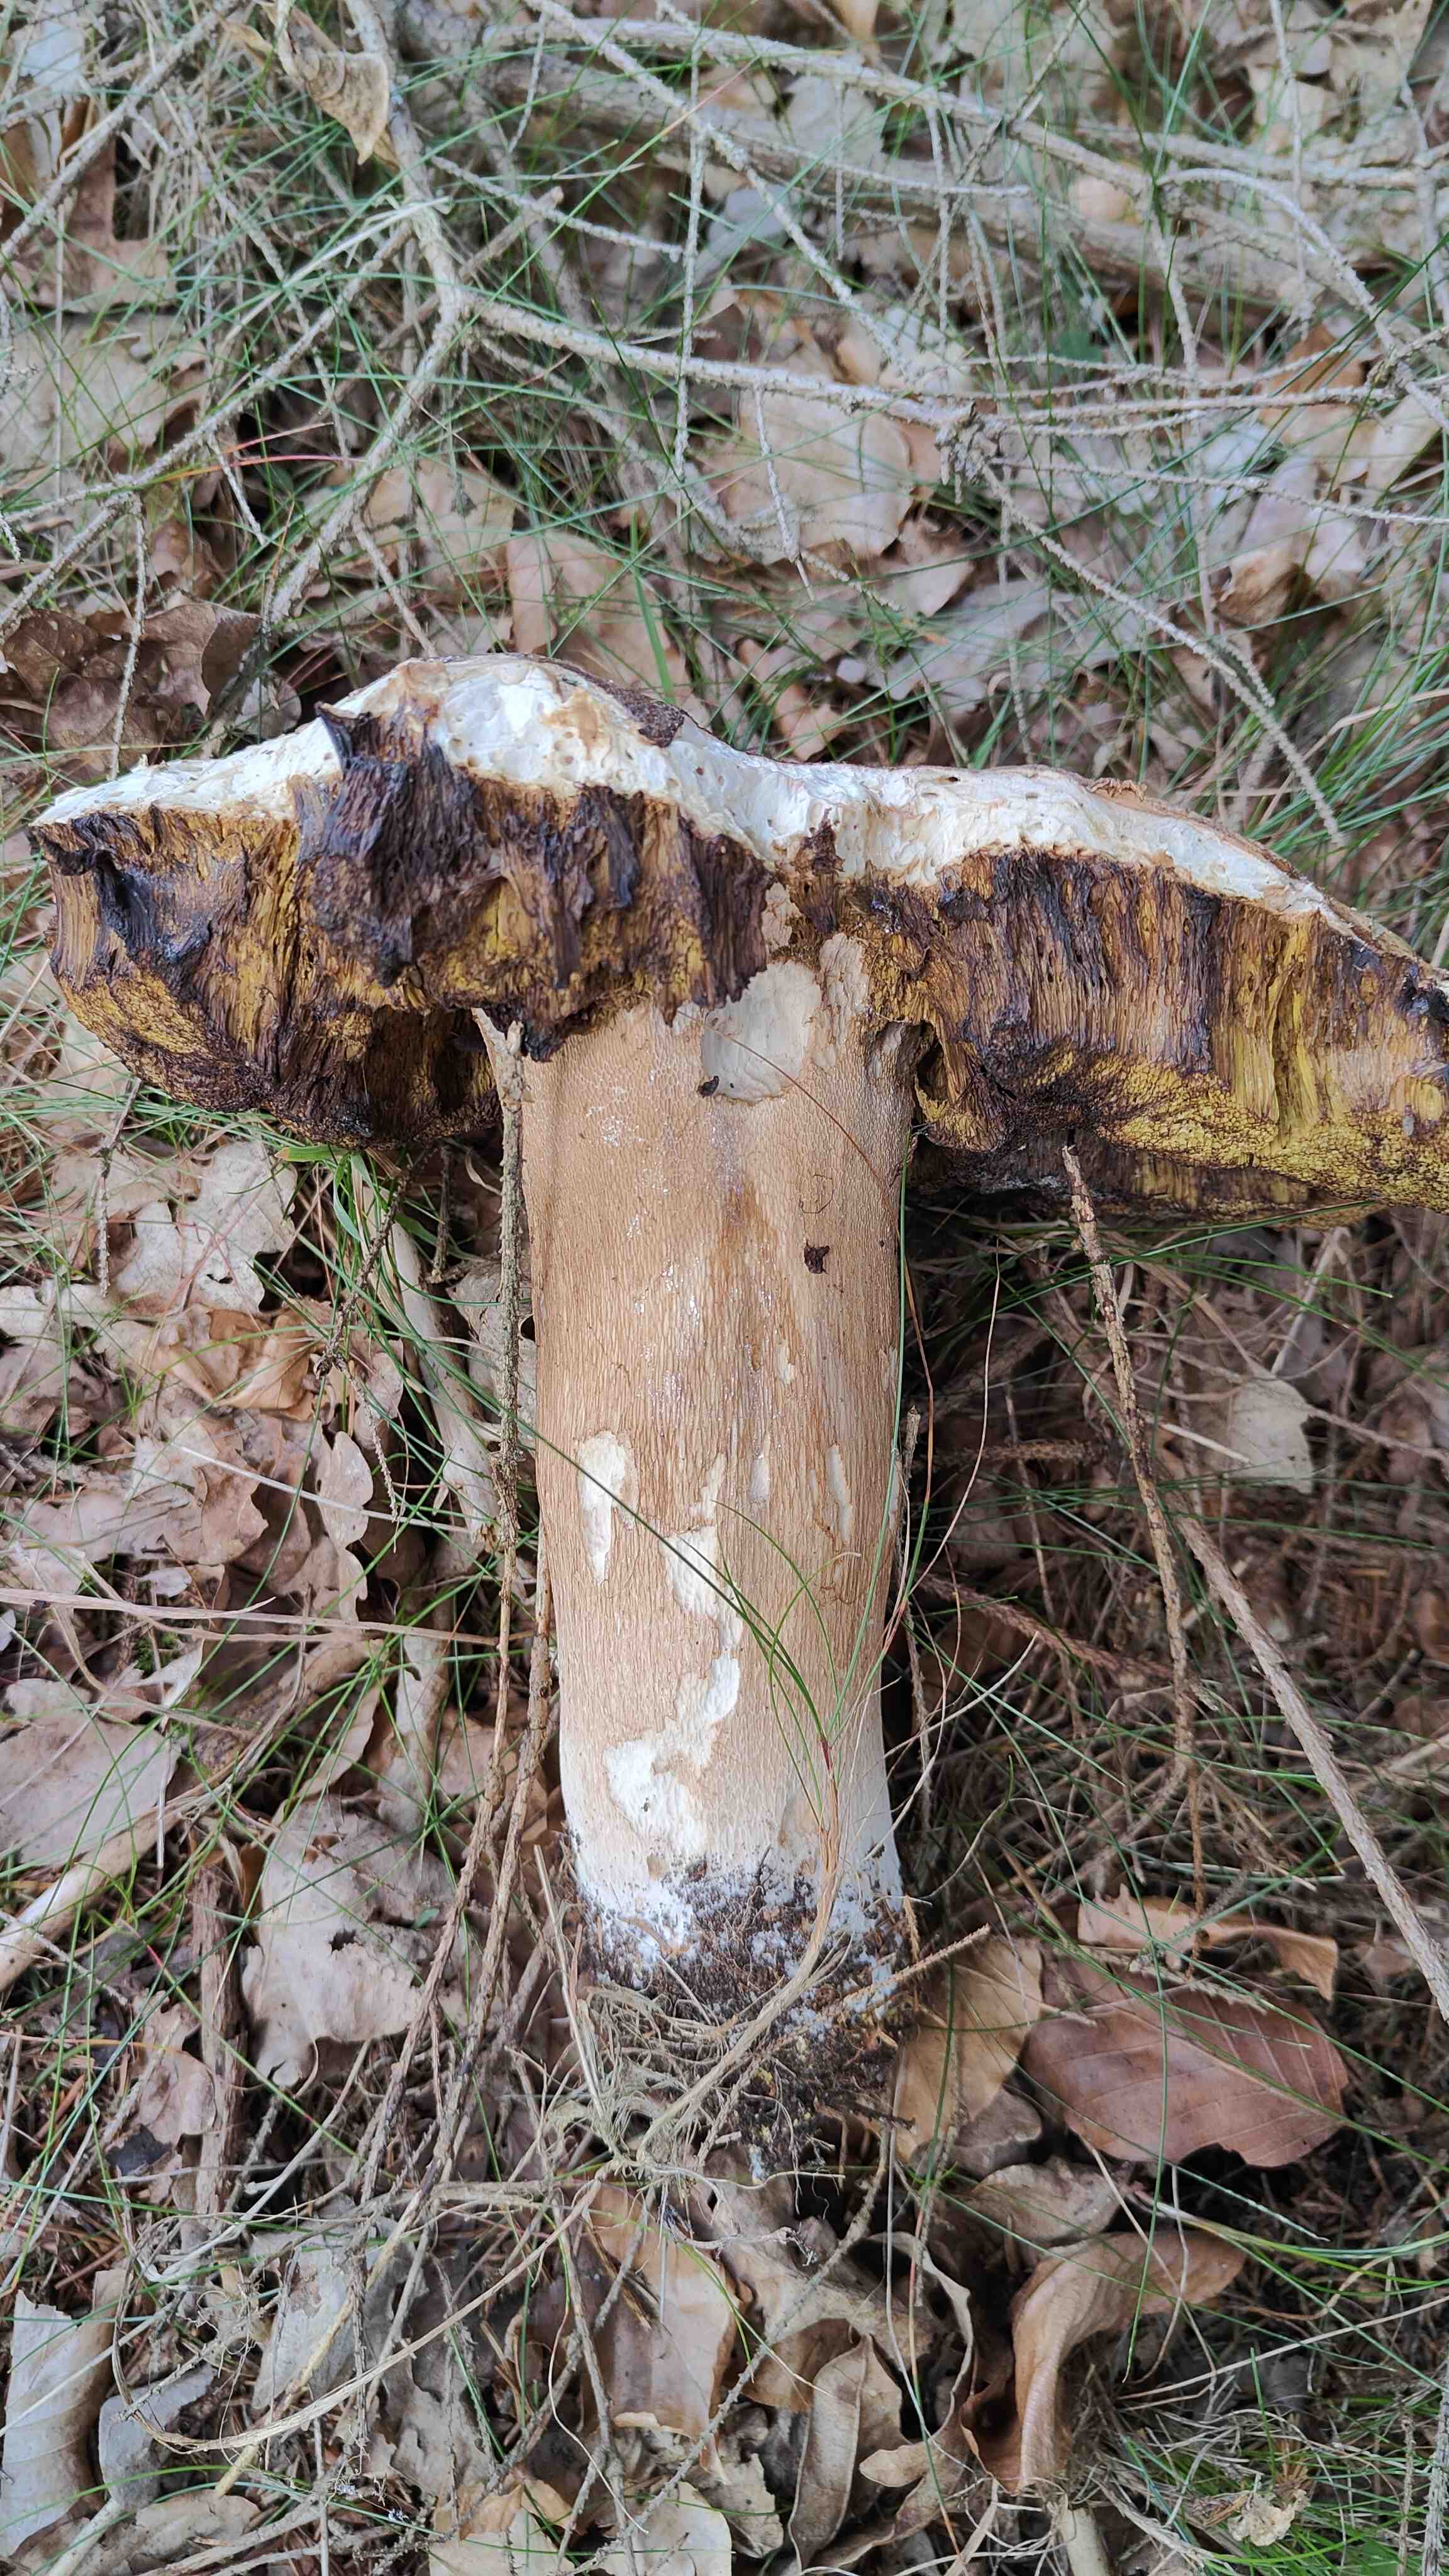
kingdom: Fungi
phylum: Basidiomycota
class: Agaricomycetes
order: Boletales
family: Boletaceae
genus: Boletus
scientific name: Boletus edulis
